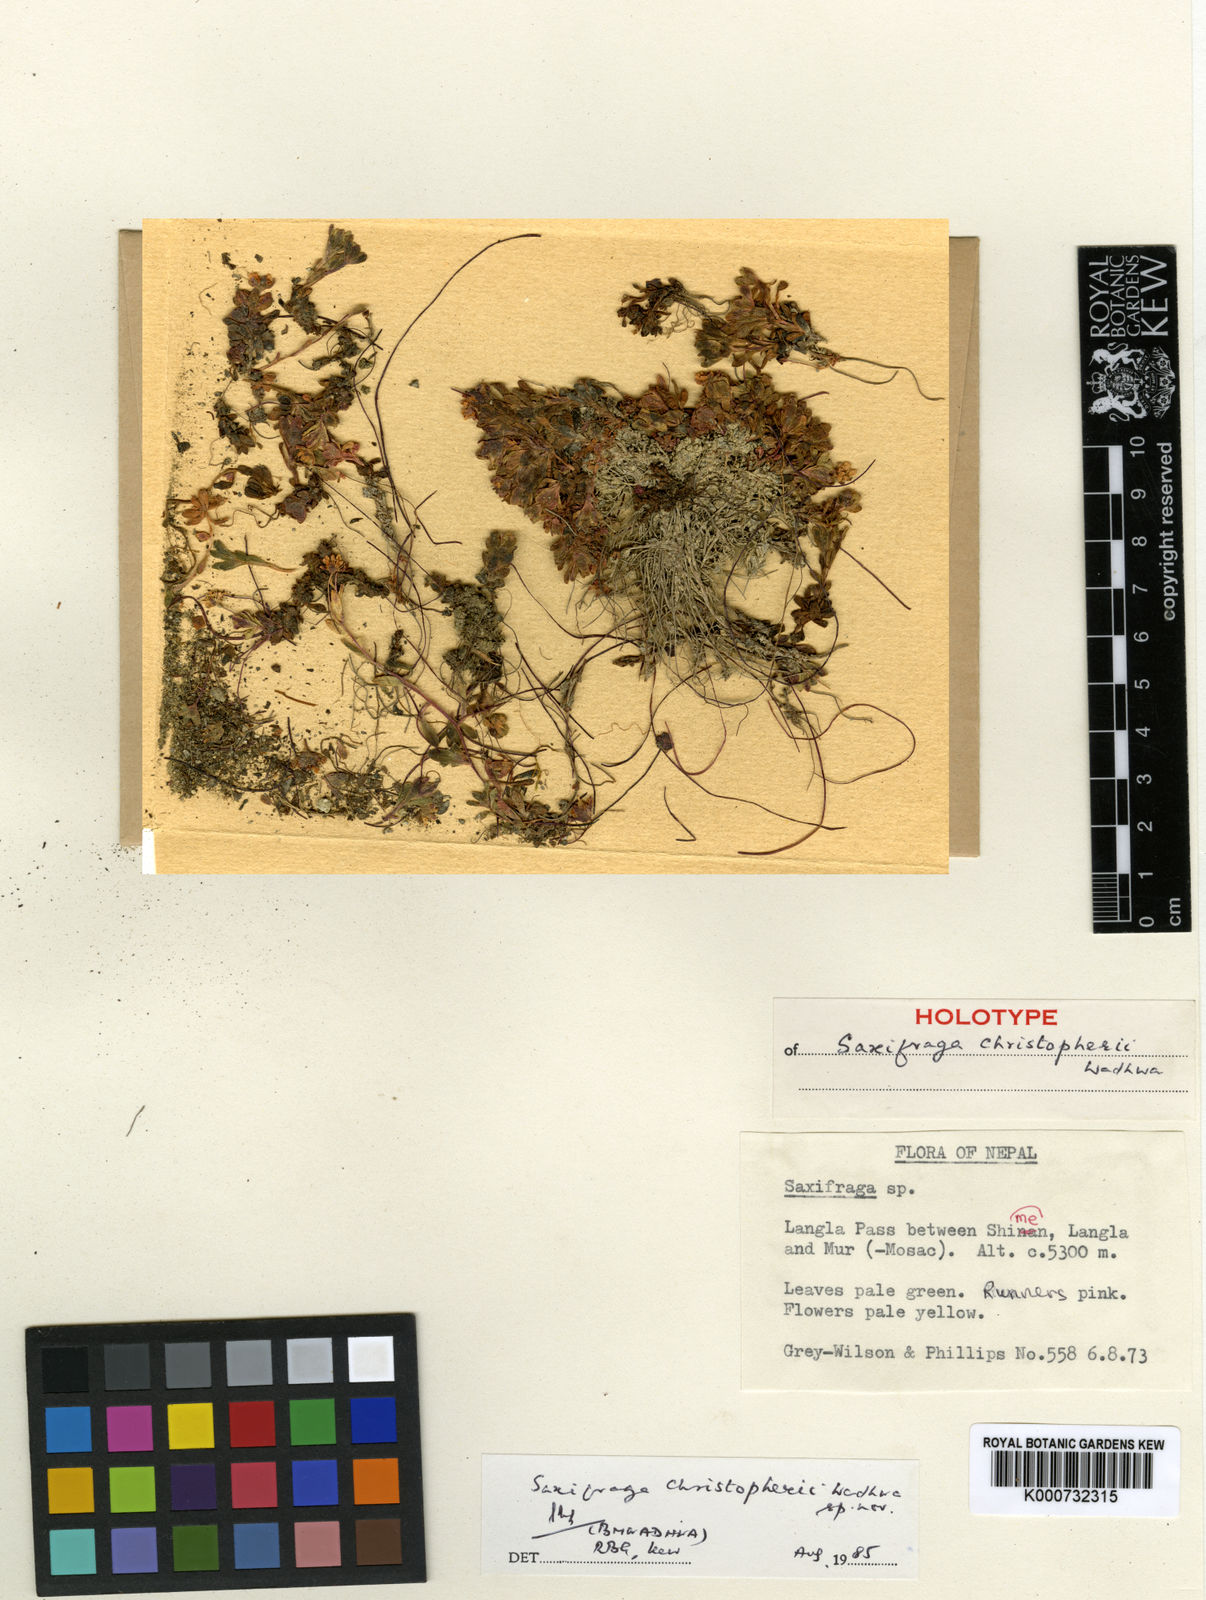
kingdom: Plantae
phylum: Tracheophyta
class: Magnoliopsida
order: Saxifragales
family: Saxifragaceae
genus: Saxifraga
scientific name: Saxifraga
